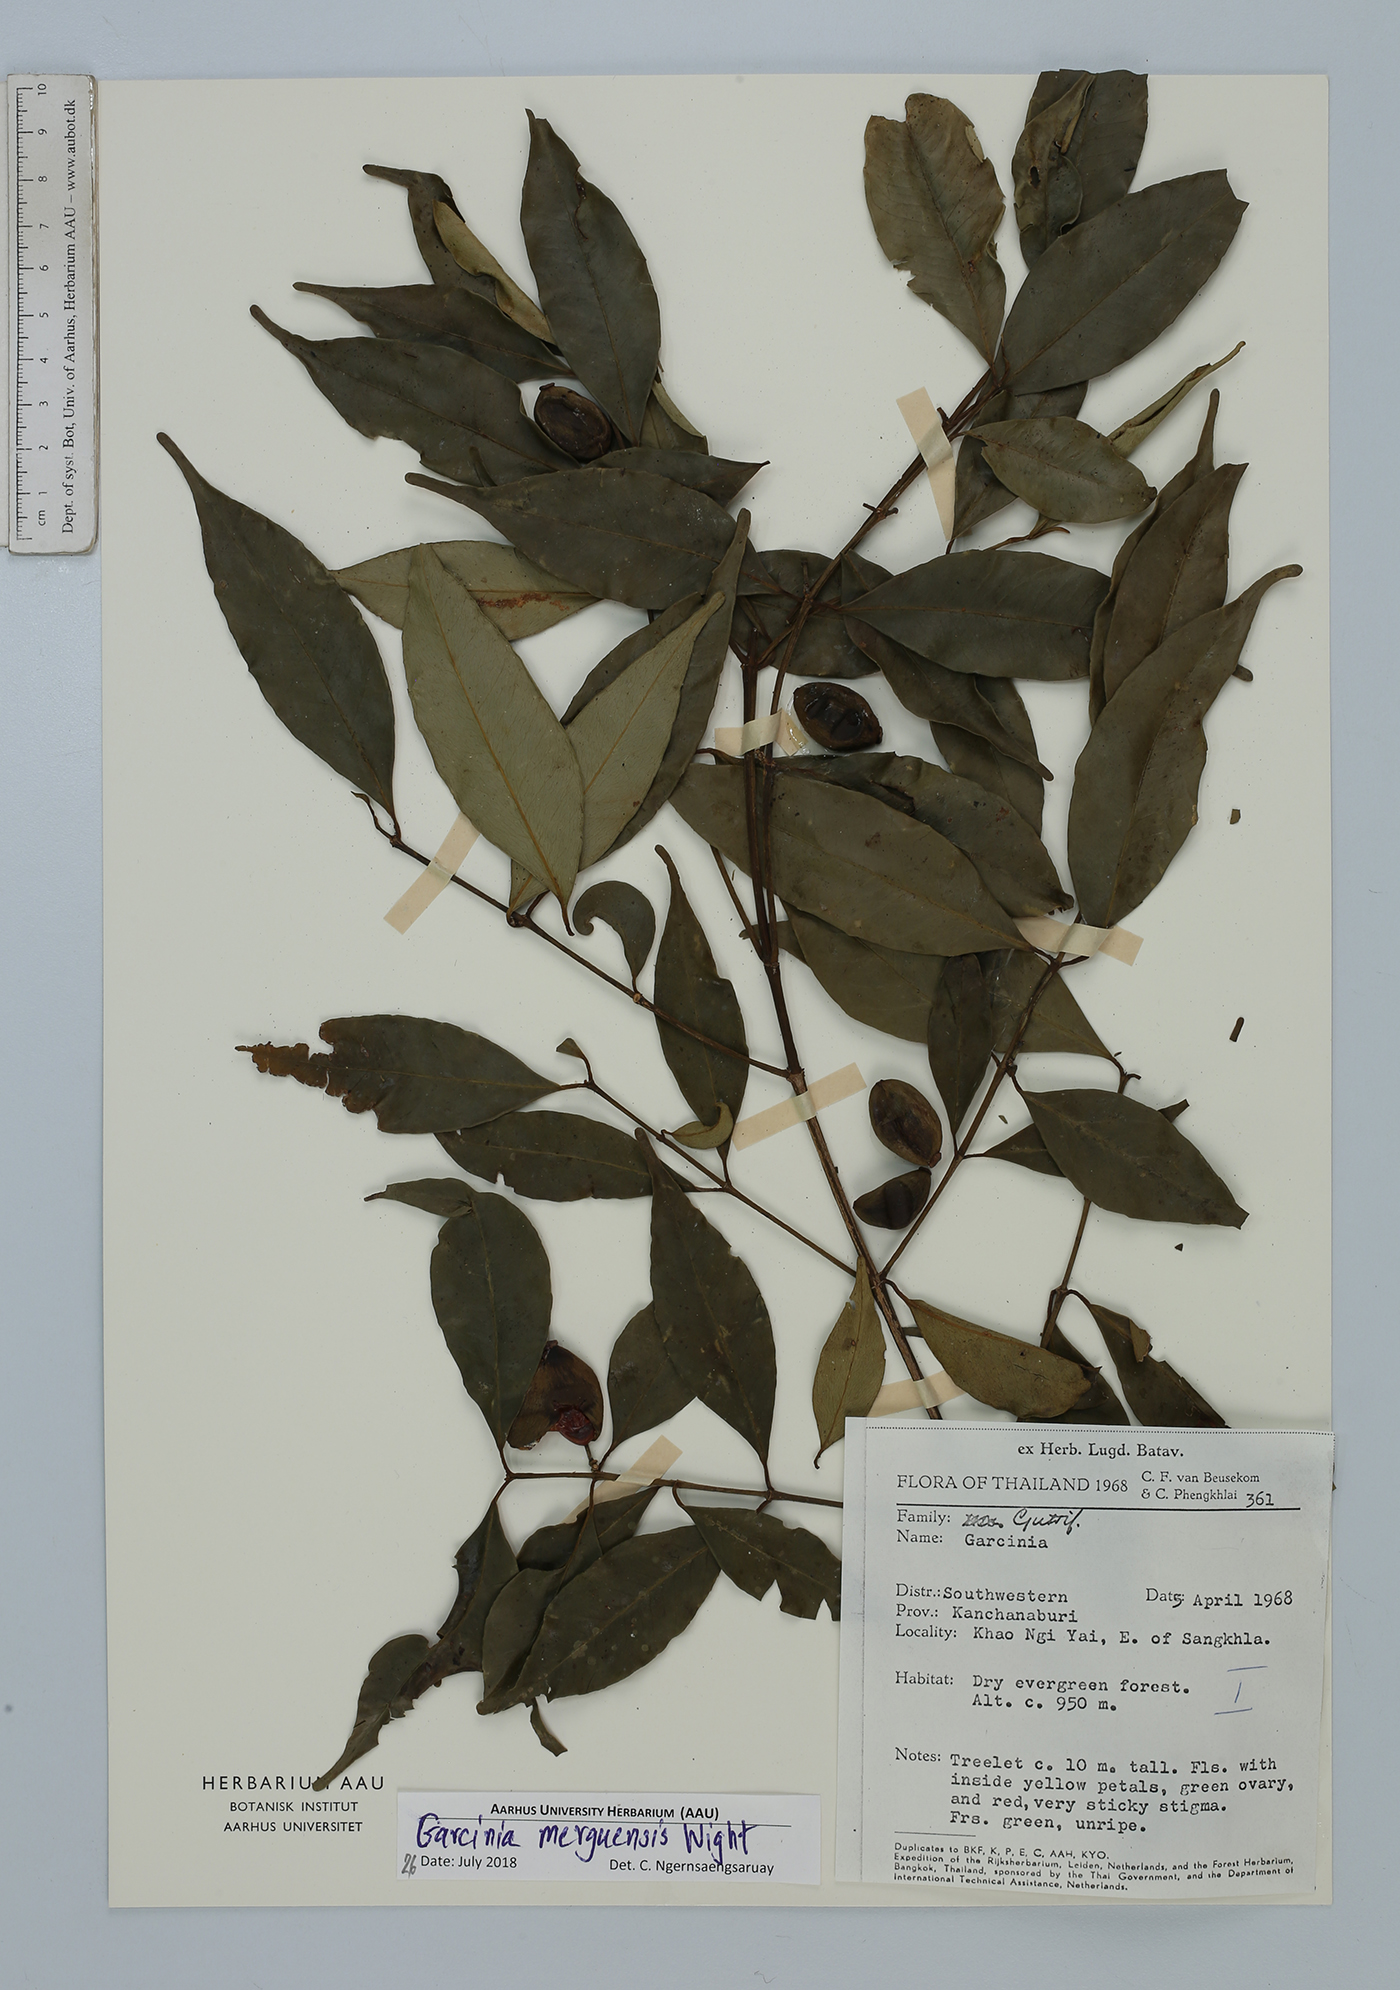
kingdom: Plantae
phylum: Tracheophyta
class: Magnoliopsida
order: Malpighiales
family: Clusiaceae
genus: Garcinia
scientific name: Garcinia merguensis
